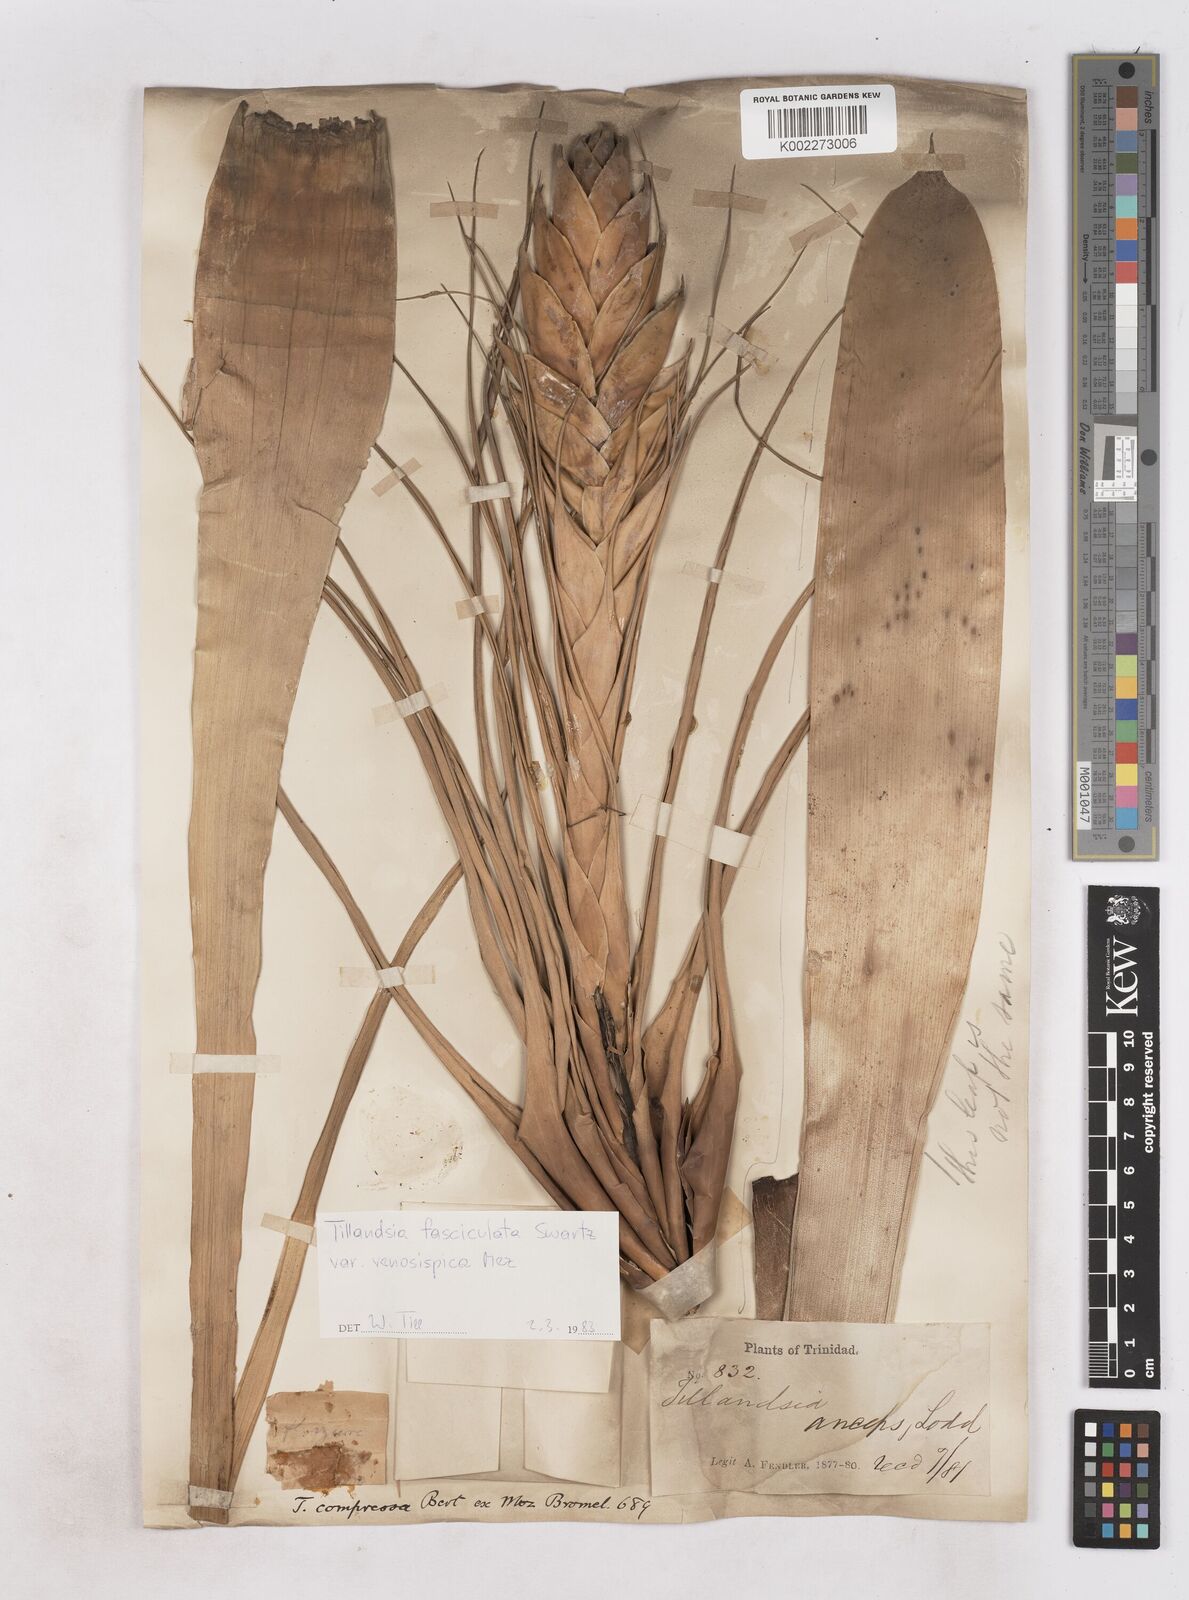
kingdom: Plantae
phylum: Tracheophyta
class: Liliopsida
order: Poales
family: Bromeliaceae
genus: Tillandsia
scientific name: Tillandsia compressa
